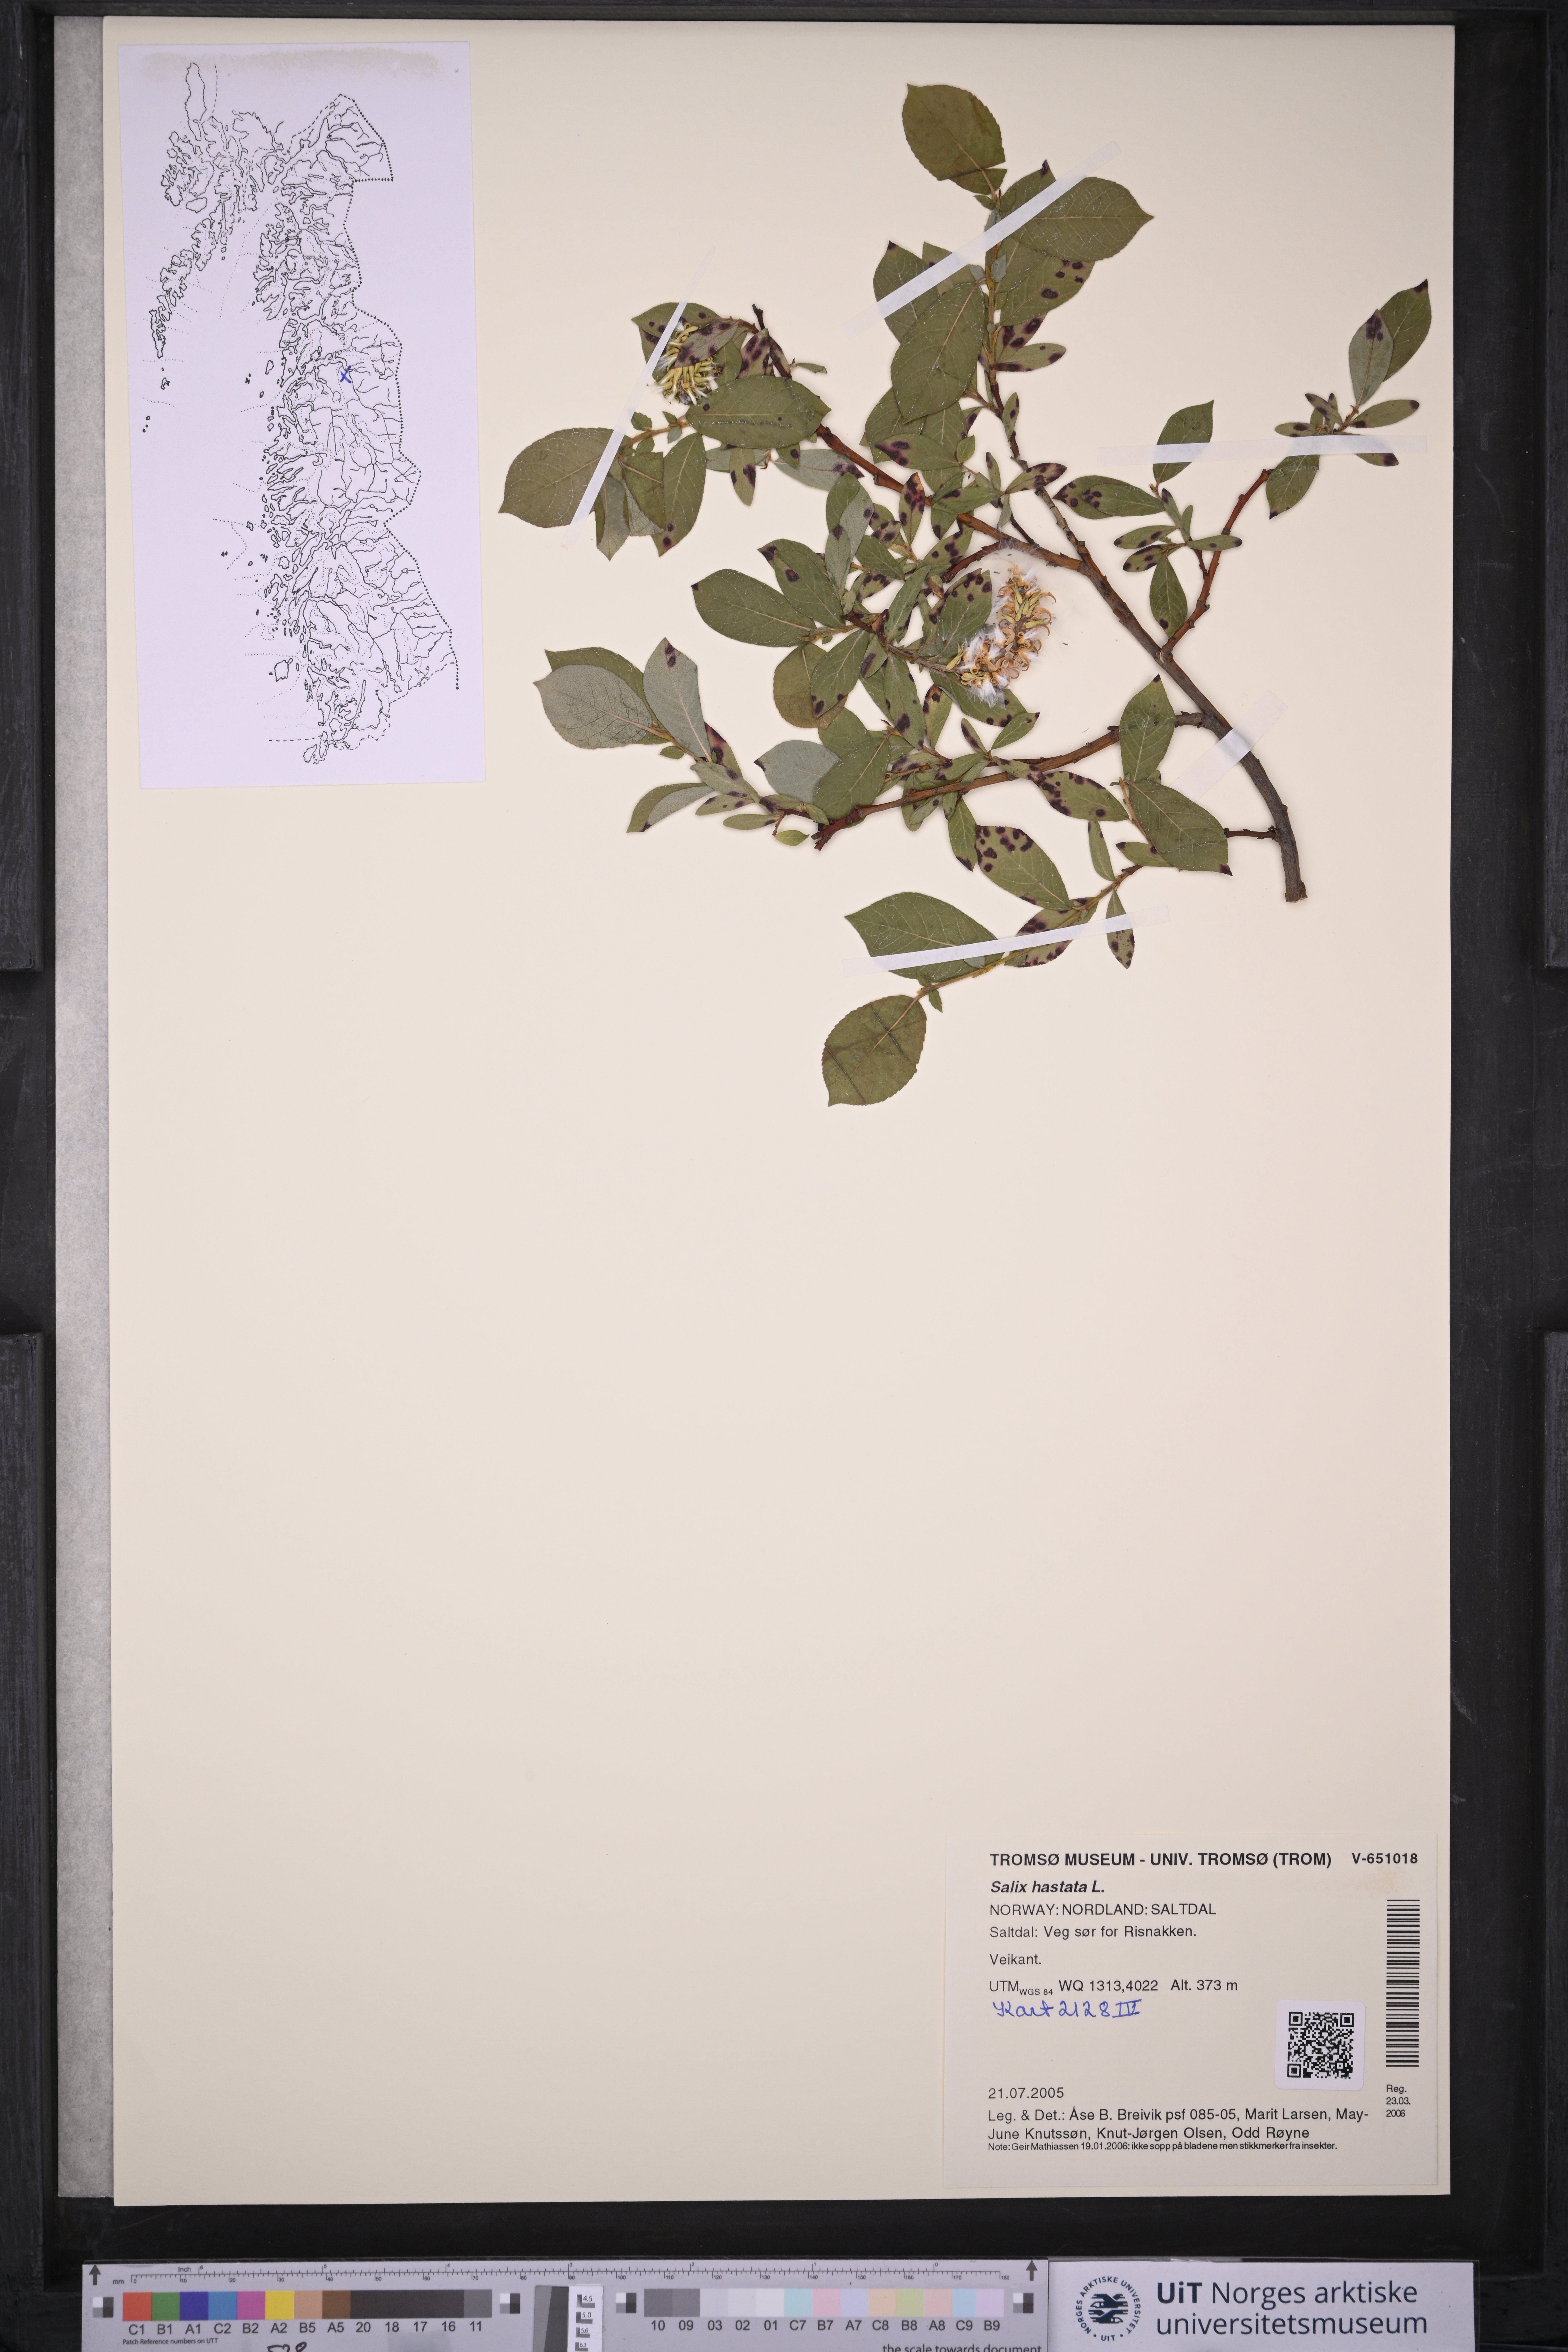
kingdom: Plantae
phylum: Tracheophyta
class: Magnoliopsida
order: Malpighiales
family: Salicaceae
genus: Salix
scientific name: Salix hastata
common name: Halberd willow
